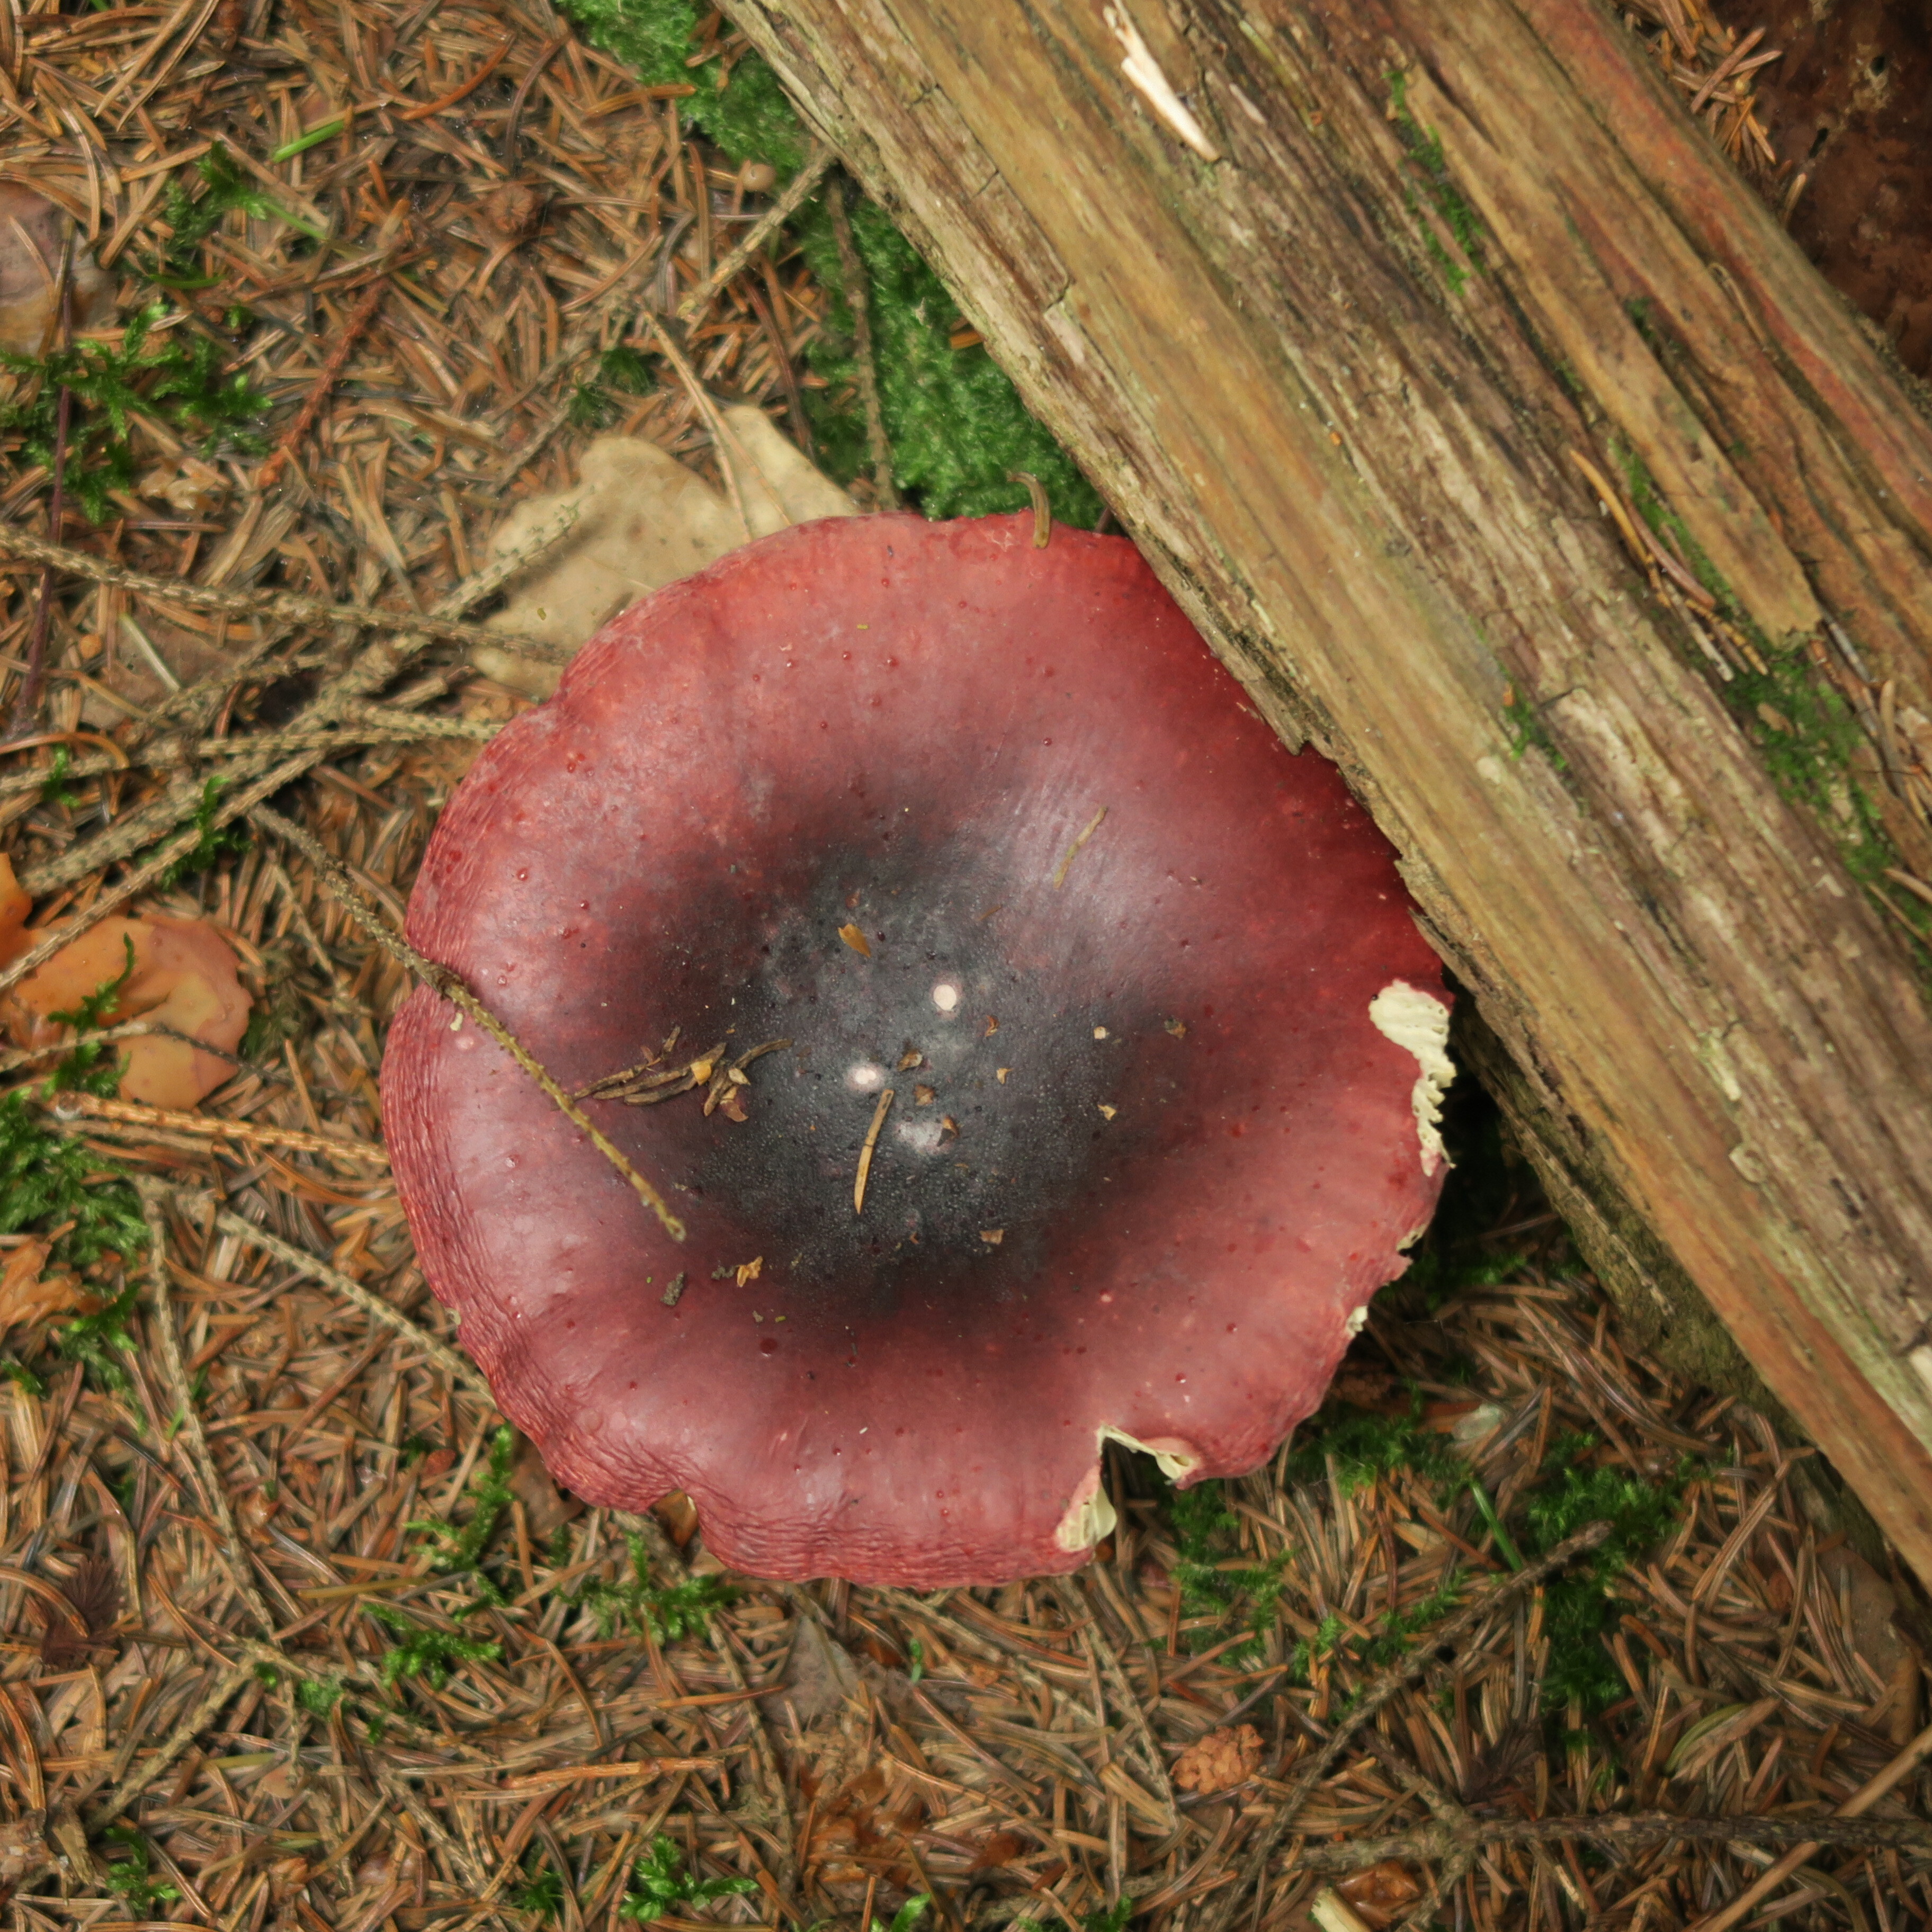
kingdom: Fungi
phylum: Basidiomycota
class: Agaricomycetes
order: Russulales
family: Russulaceae
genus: Russula
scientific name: Russula vinosa
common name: Darkening brittlegill
